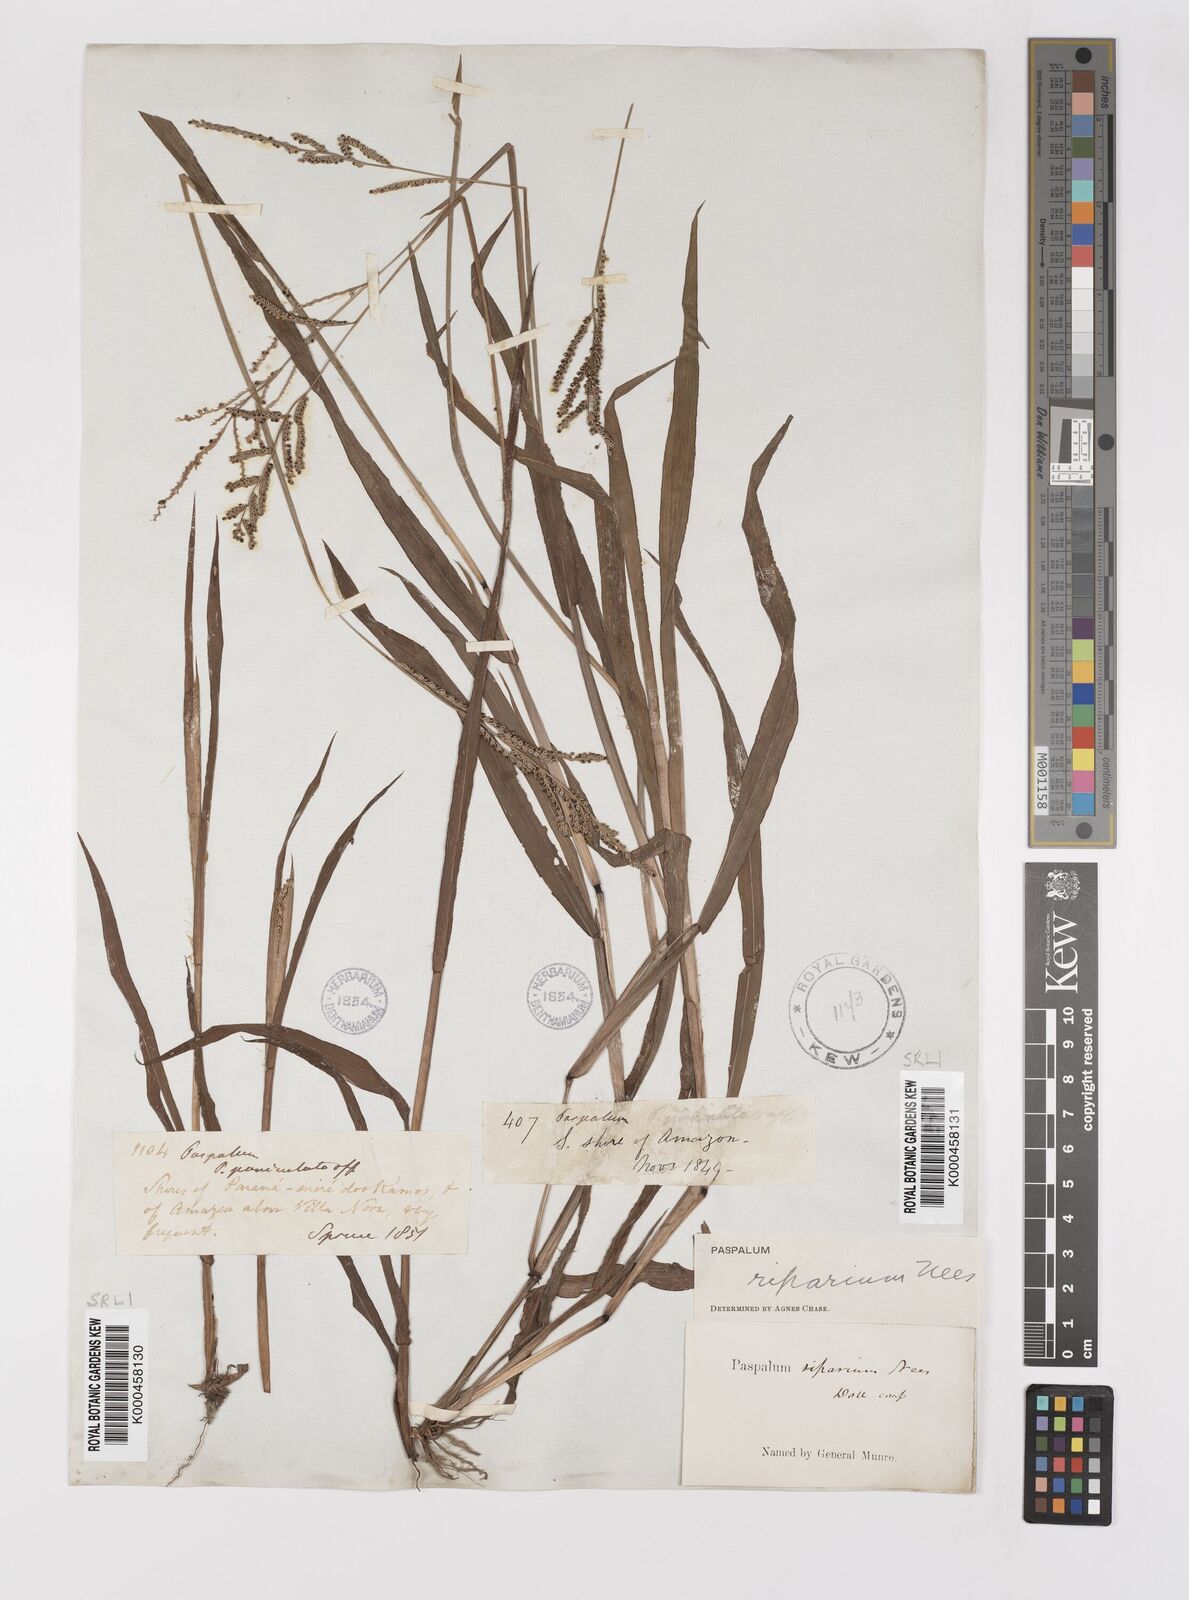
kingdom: Plantae
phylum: Tracheophyta
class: Liliopsida
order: Poales
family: Poaceae
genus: Paspalum
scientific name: Paspalum
